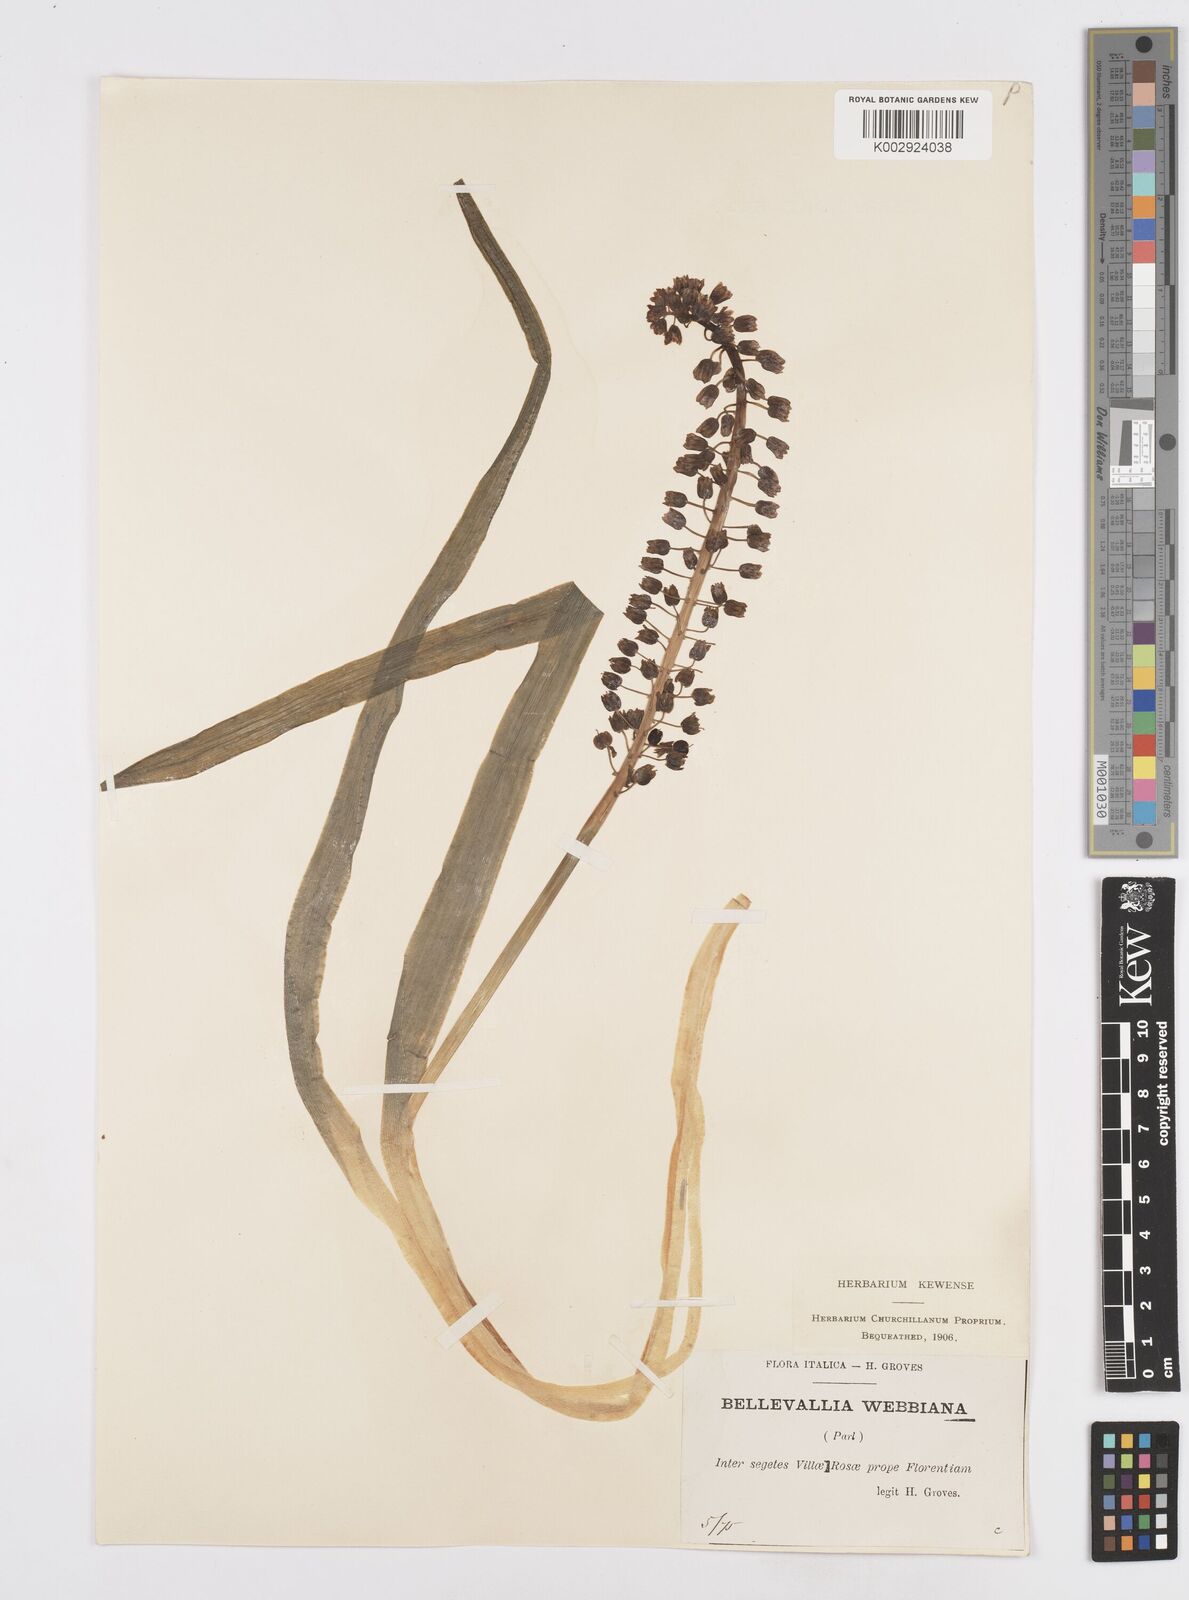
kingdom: Plantae
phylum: Tracheophyta
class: Liliopsida
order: Asparagales
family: Asparagaceae
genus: Bellevalia
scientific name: Bellevalia dubia
